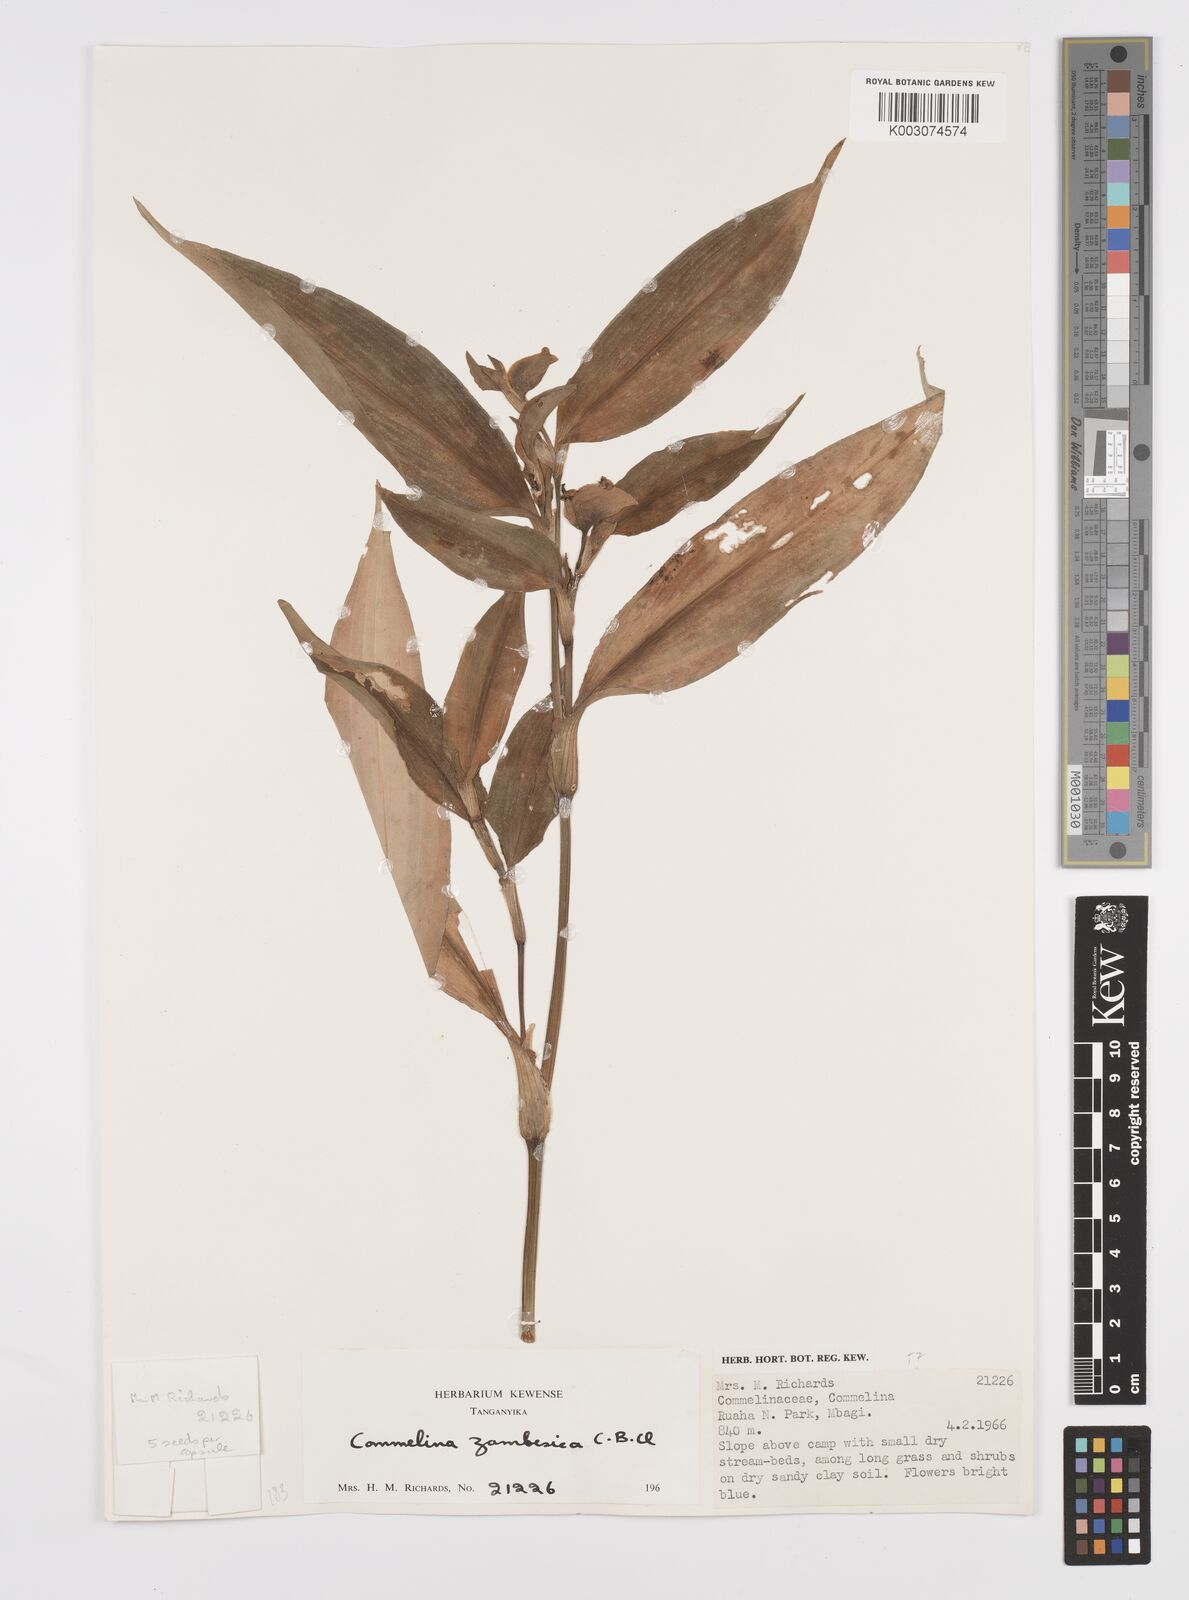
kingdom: Plantae
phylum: Tracheophyta
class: Liliopsida
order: Commelinales
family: Commelinaceae
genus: Commelina
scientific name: Commelina zambesica
